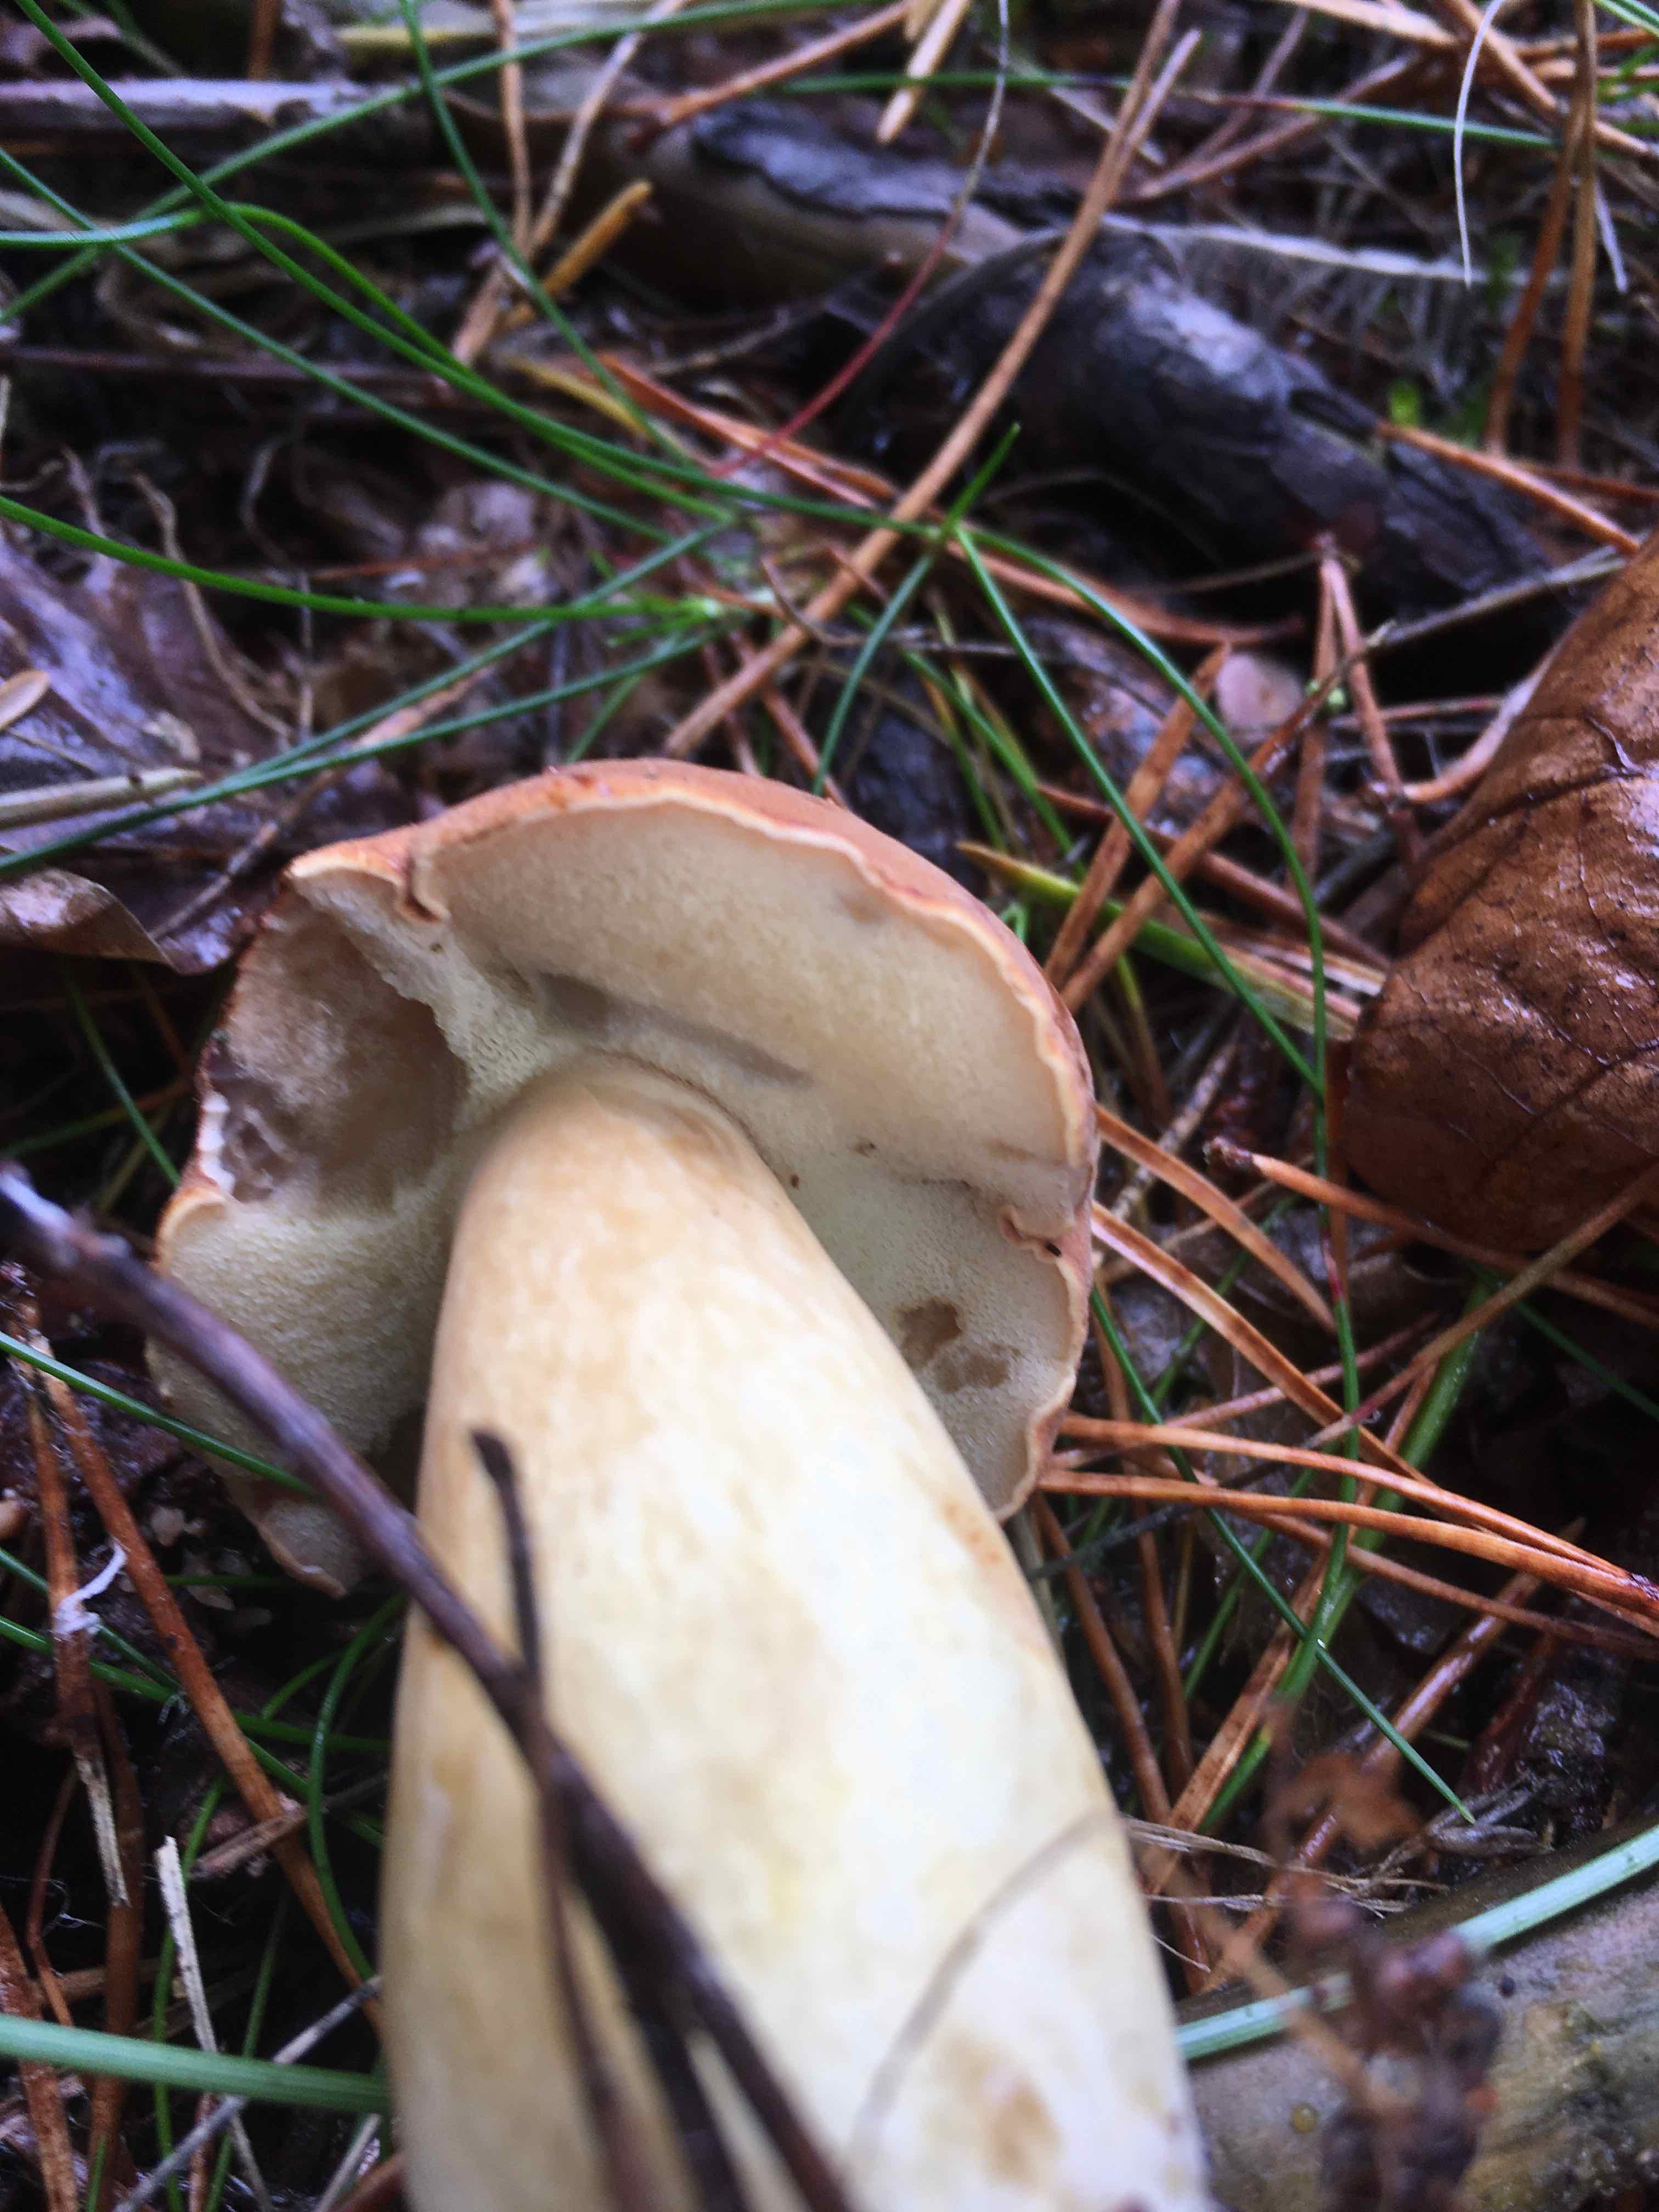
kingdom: Fungi
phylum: Basidiomycota
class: Agaricomycetes
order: Boletales
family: Boletaceae
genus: Imleria
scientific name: Imleria badia
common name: brunstokket rørhat
